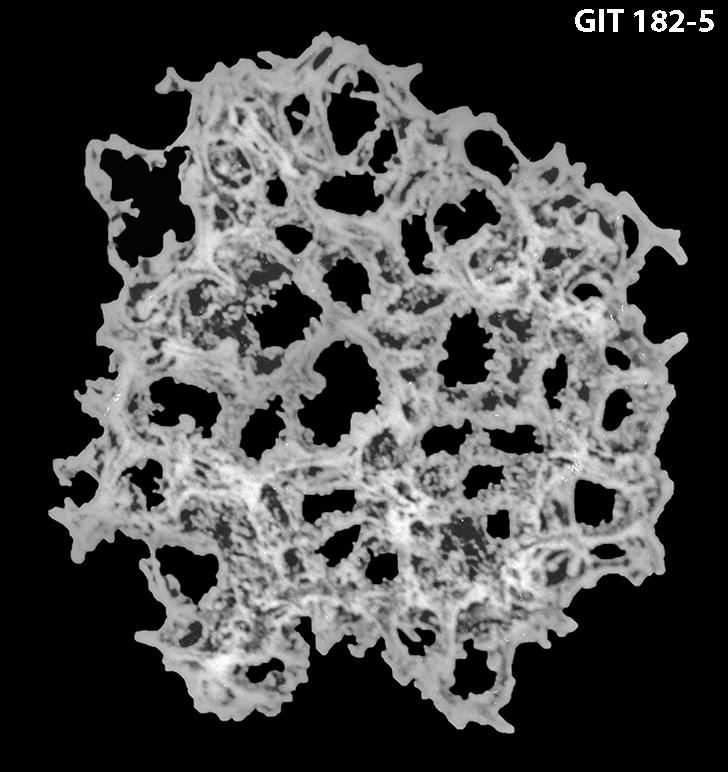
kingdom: Animalia
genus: Haplentactinia
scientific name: Haplentactinia
